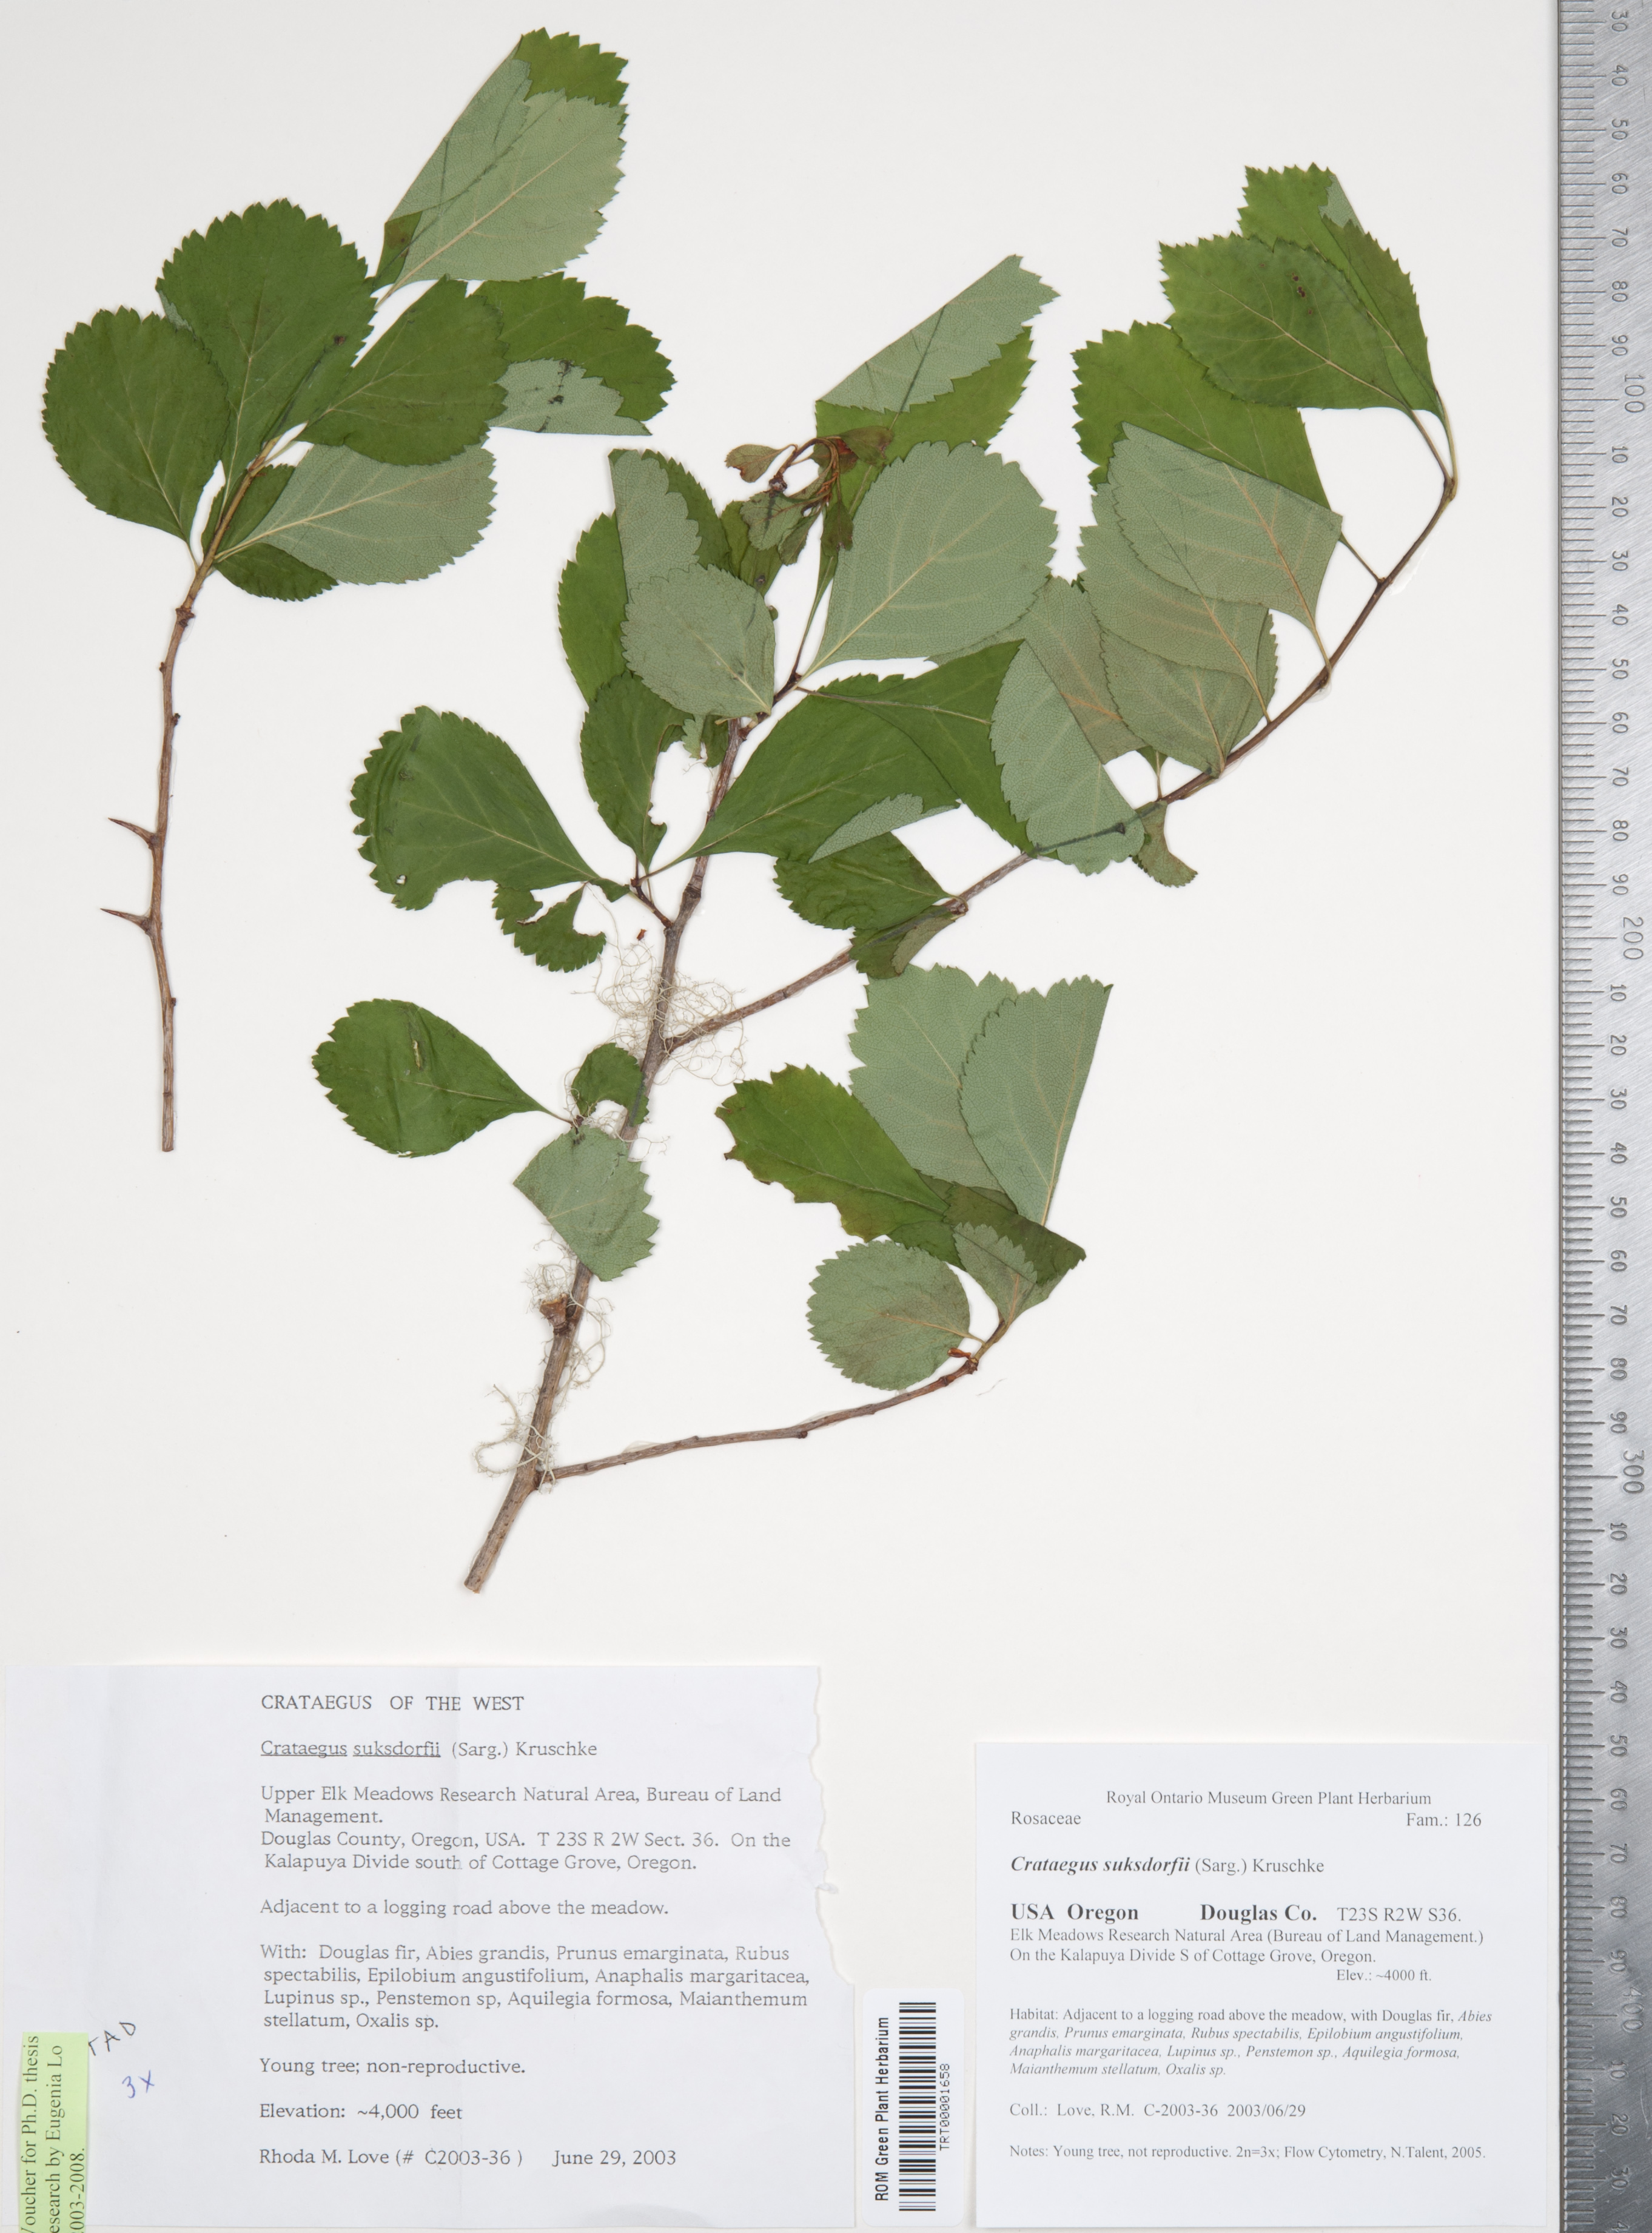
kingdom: Plantae
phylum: Tracheophyta
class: Magnoliopsida
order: Rosales
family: Rosaceae
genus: Crataegus
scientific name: Crataegus gaylussacia
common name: Huckleberry hawthorn
